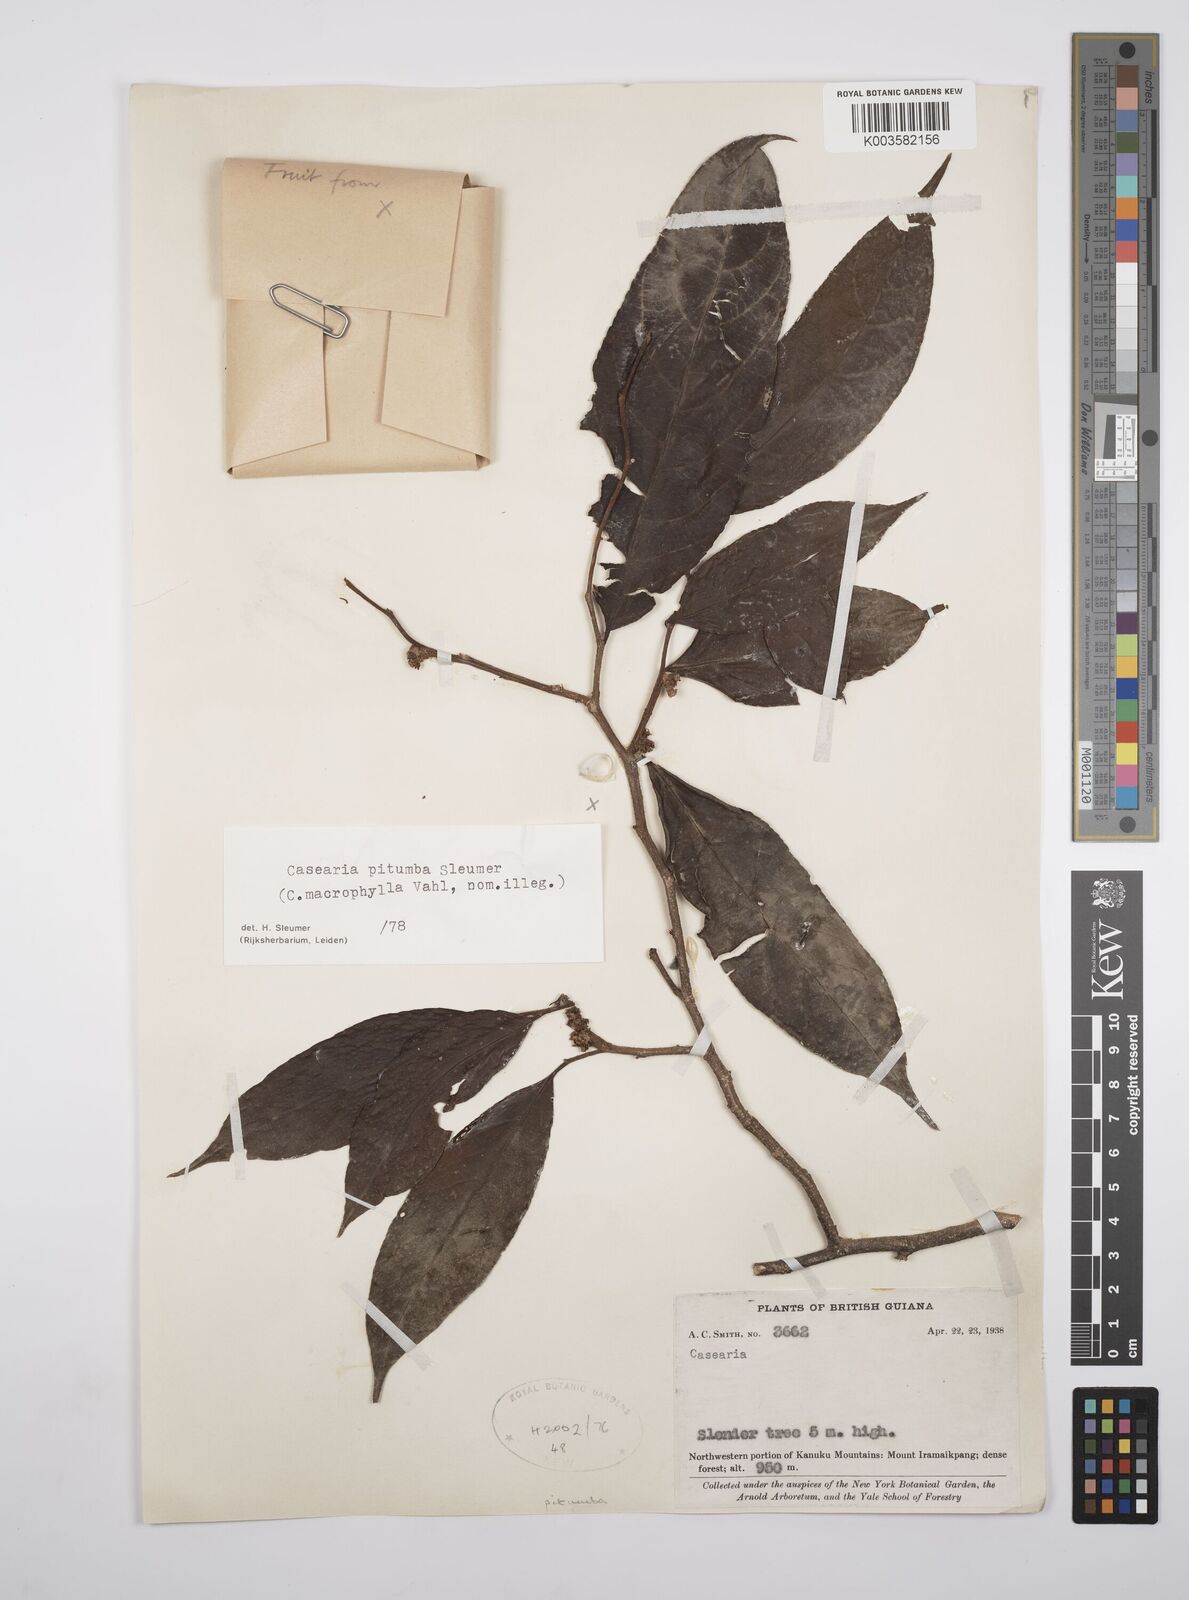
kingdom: Plantae
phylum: Tracheophyta
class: Magnoliopsida
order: Malpighiales
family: Salicaceae
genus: Casearia
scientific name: Casearia pitumba
